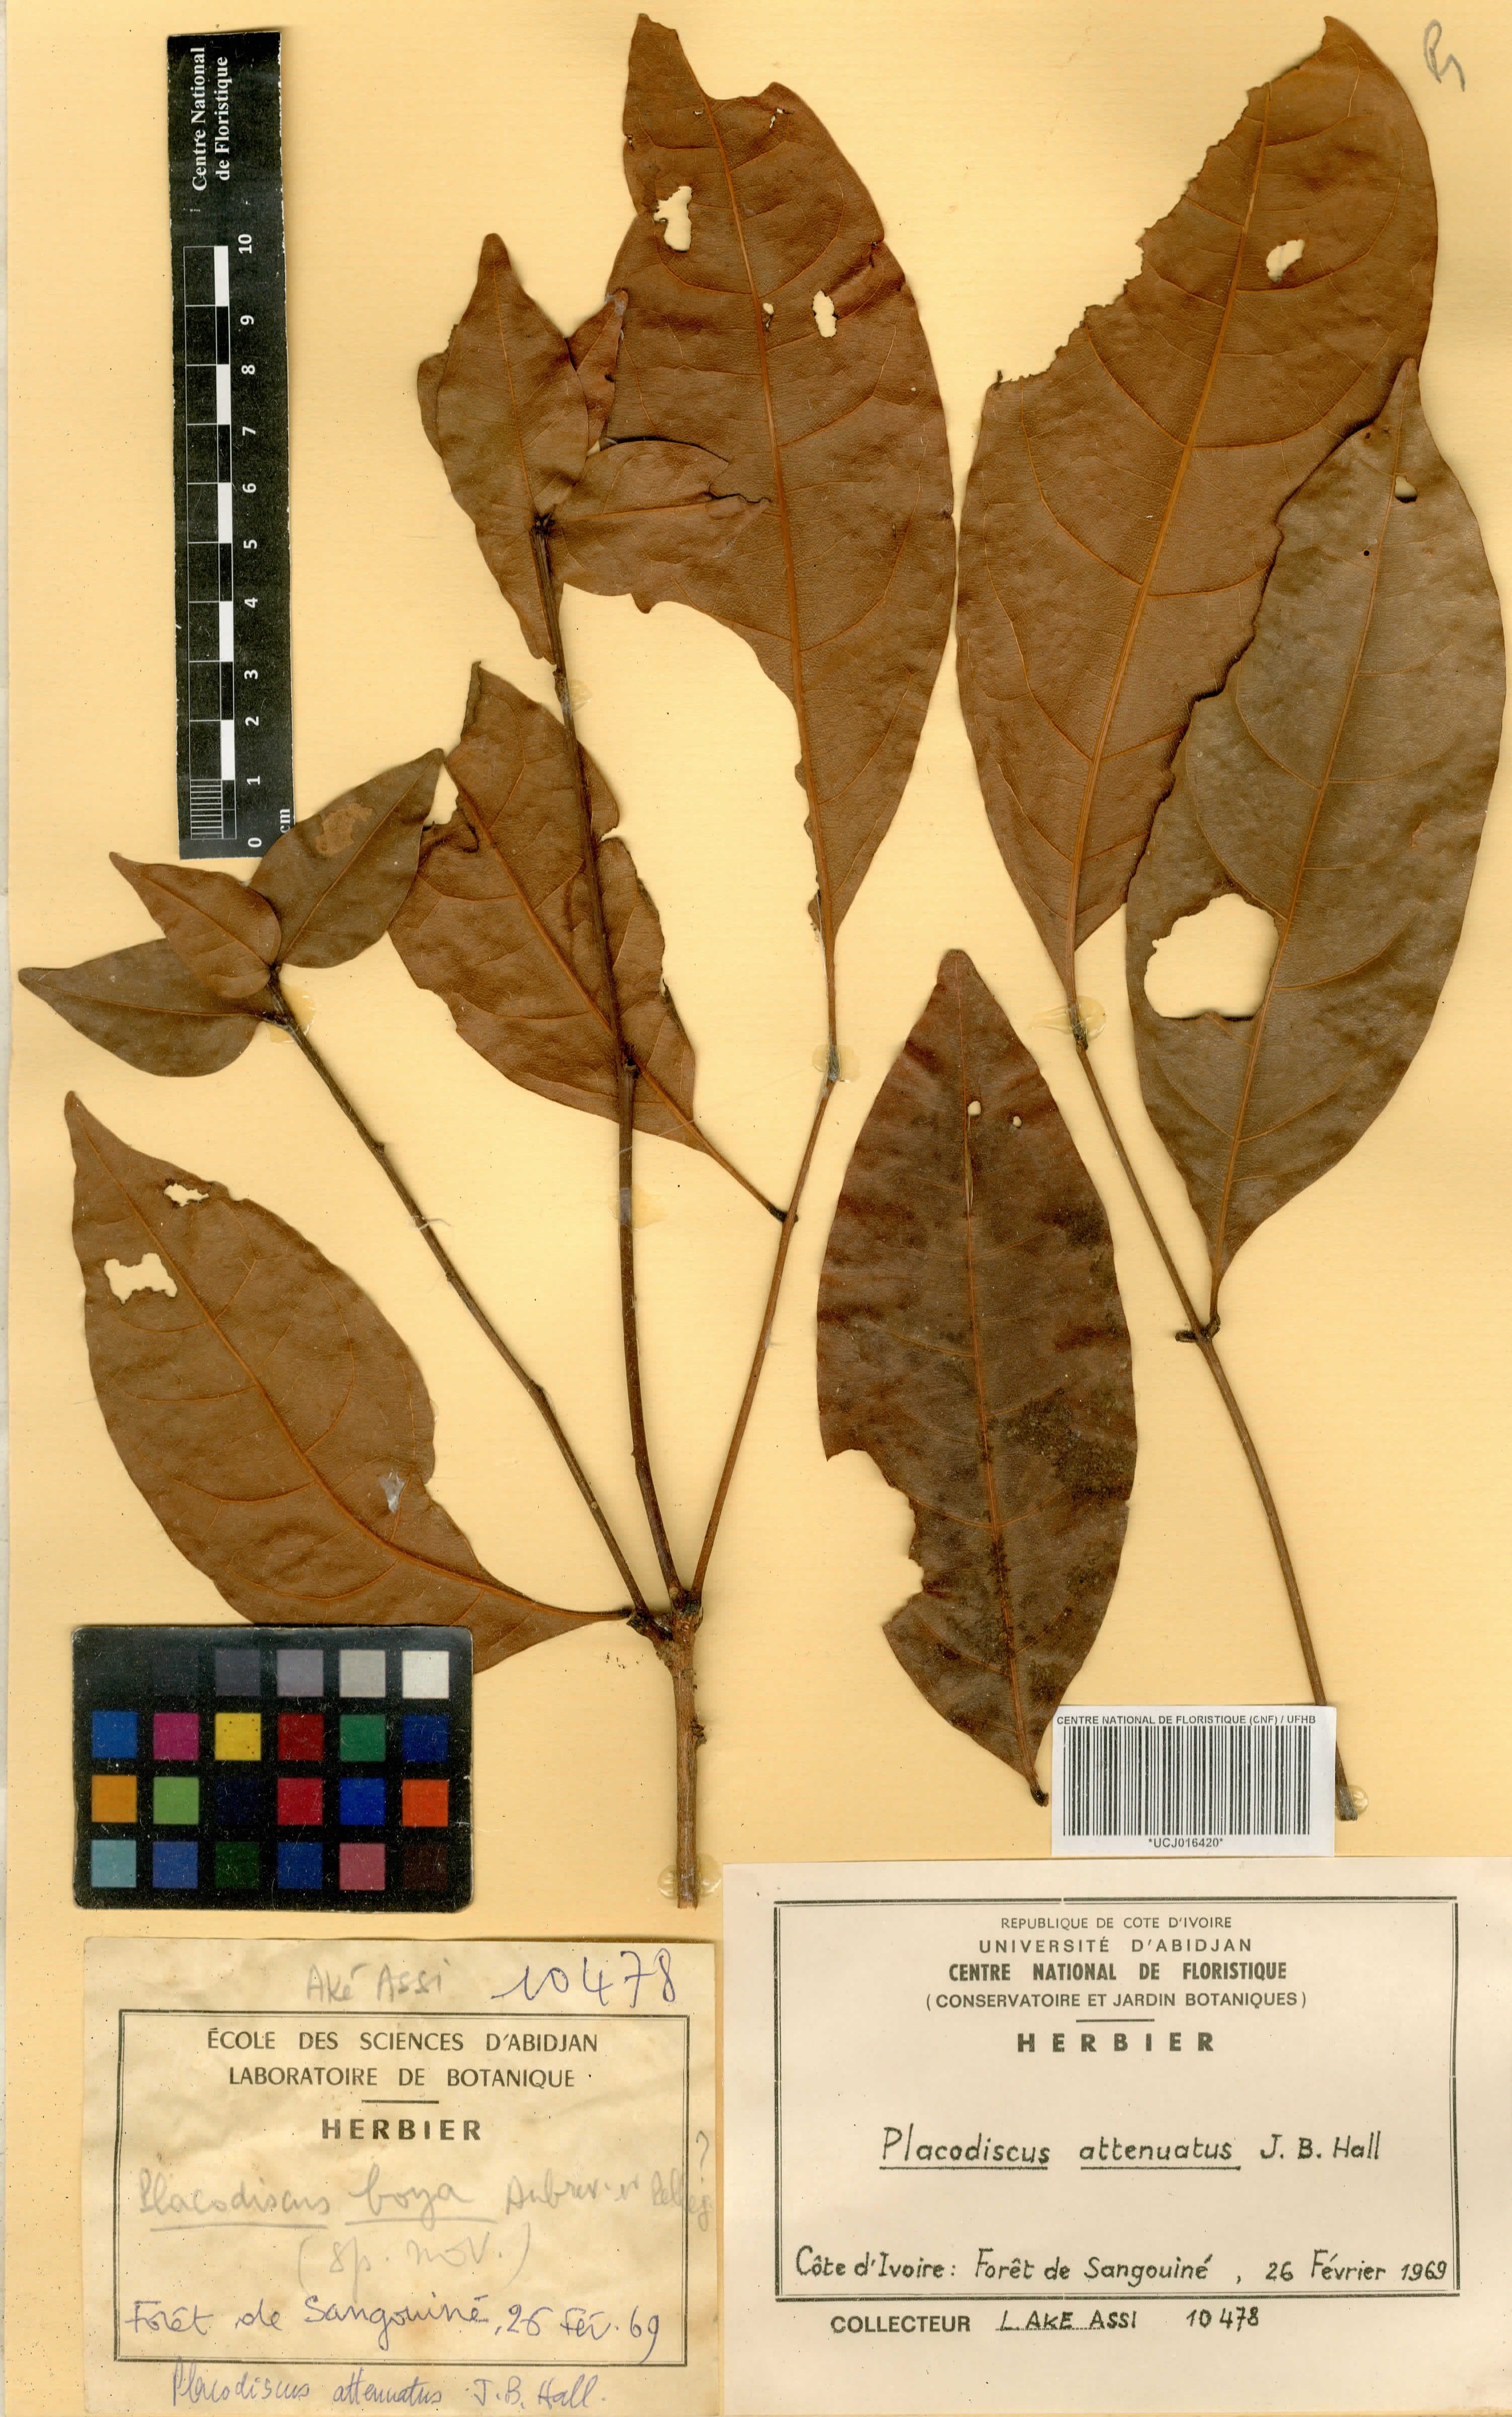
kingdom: Plantae
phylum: Tracheophyta
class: Magnoliopsida
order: Sapindales
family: Sapindaceae
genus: Placodiscus
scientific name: Placodiscus attenuatus
